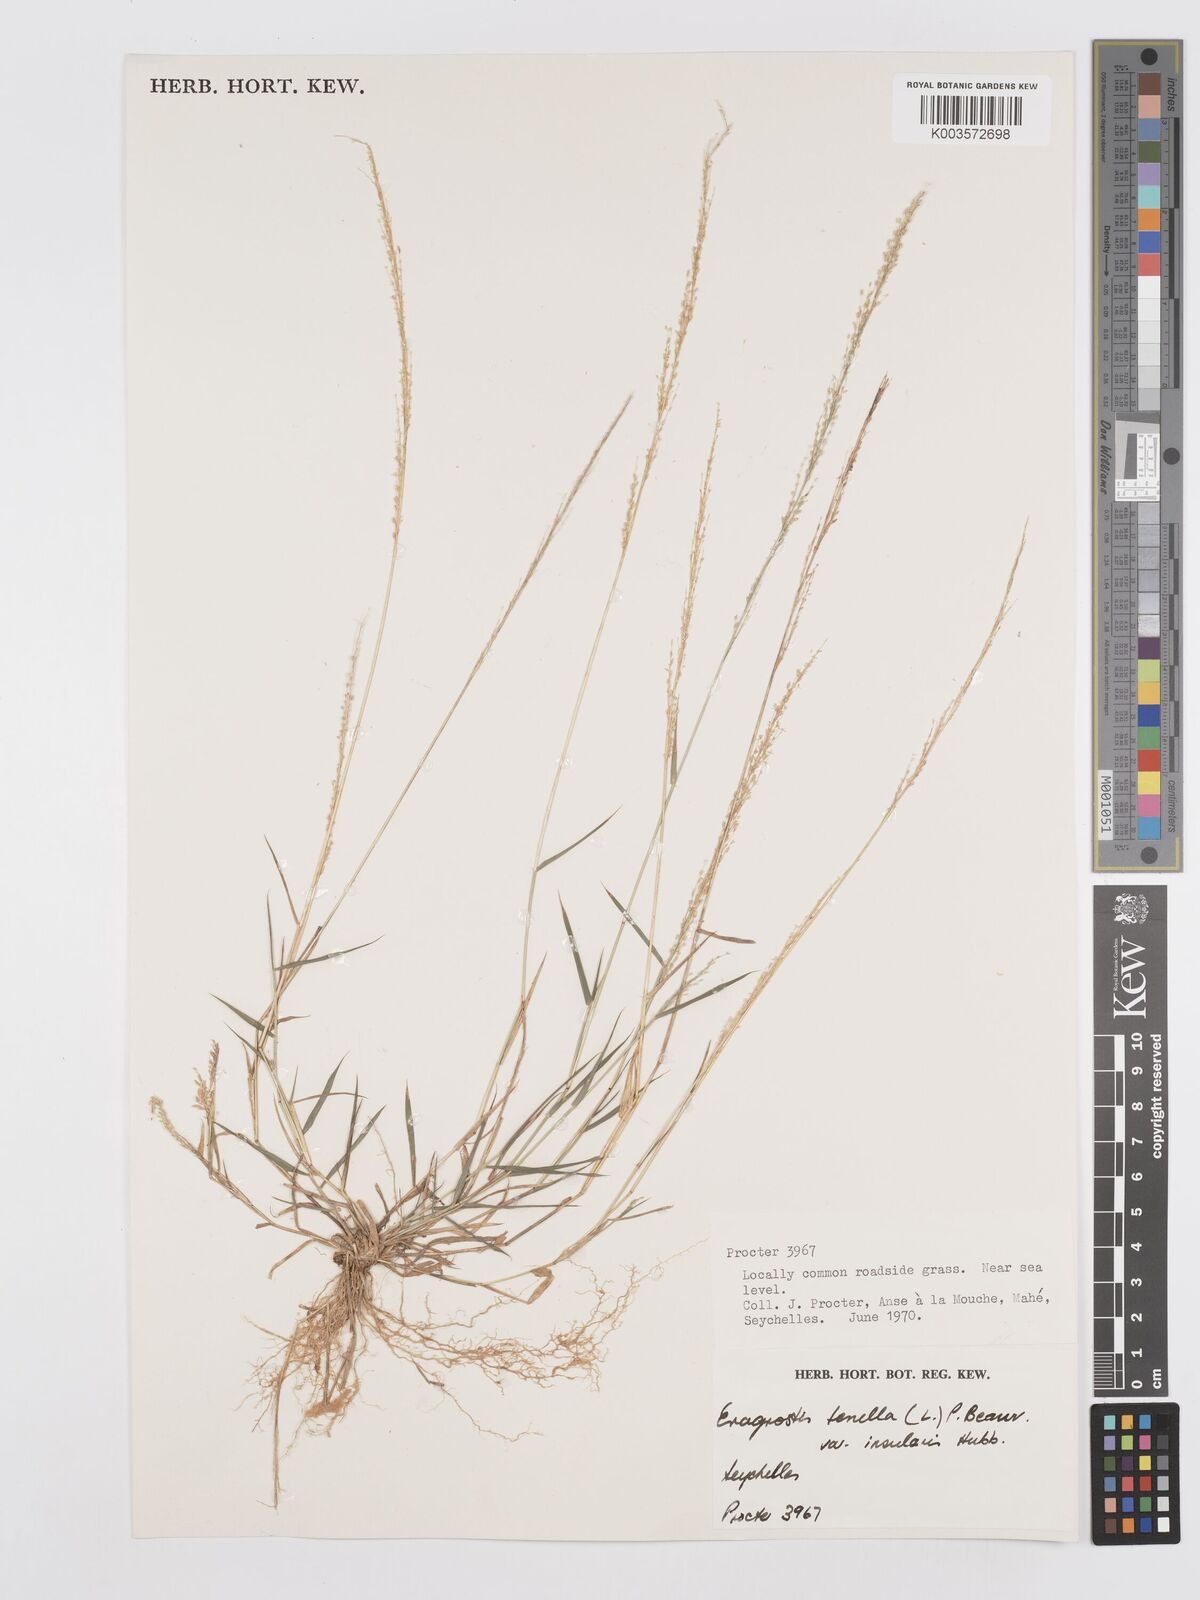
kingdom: Plantae
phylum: Tracheophyta
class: Liliopsida
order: Poales
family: Poaceae
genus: Eragrostis
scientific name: Eragrostis tenella
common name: Japanese lovegrass
